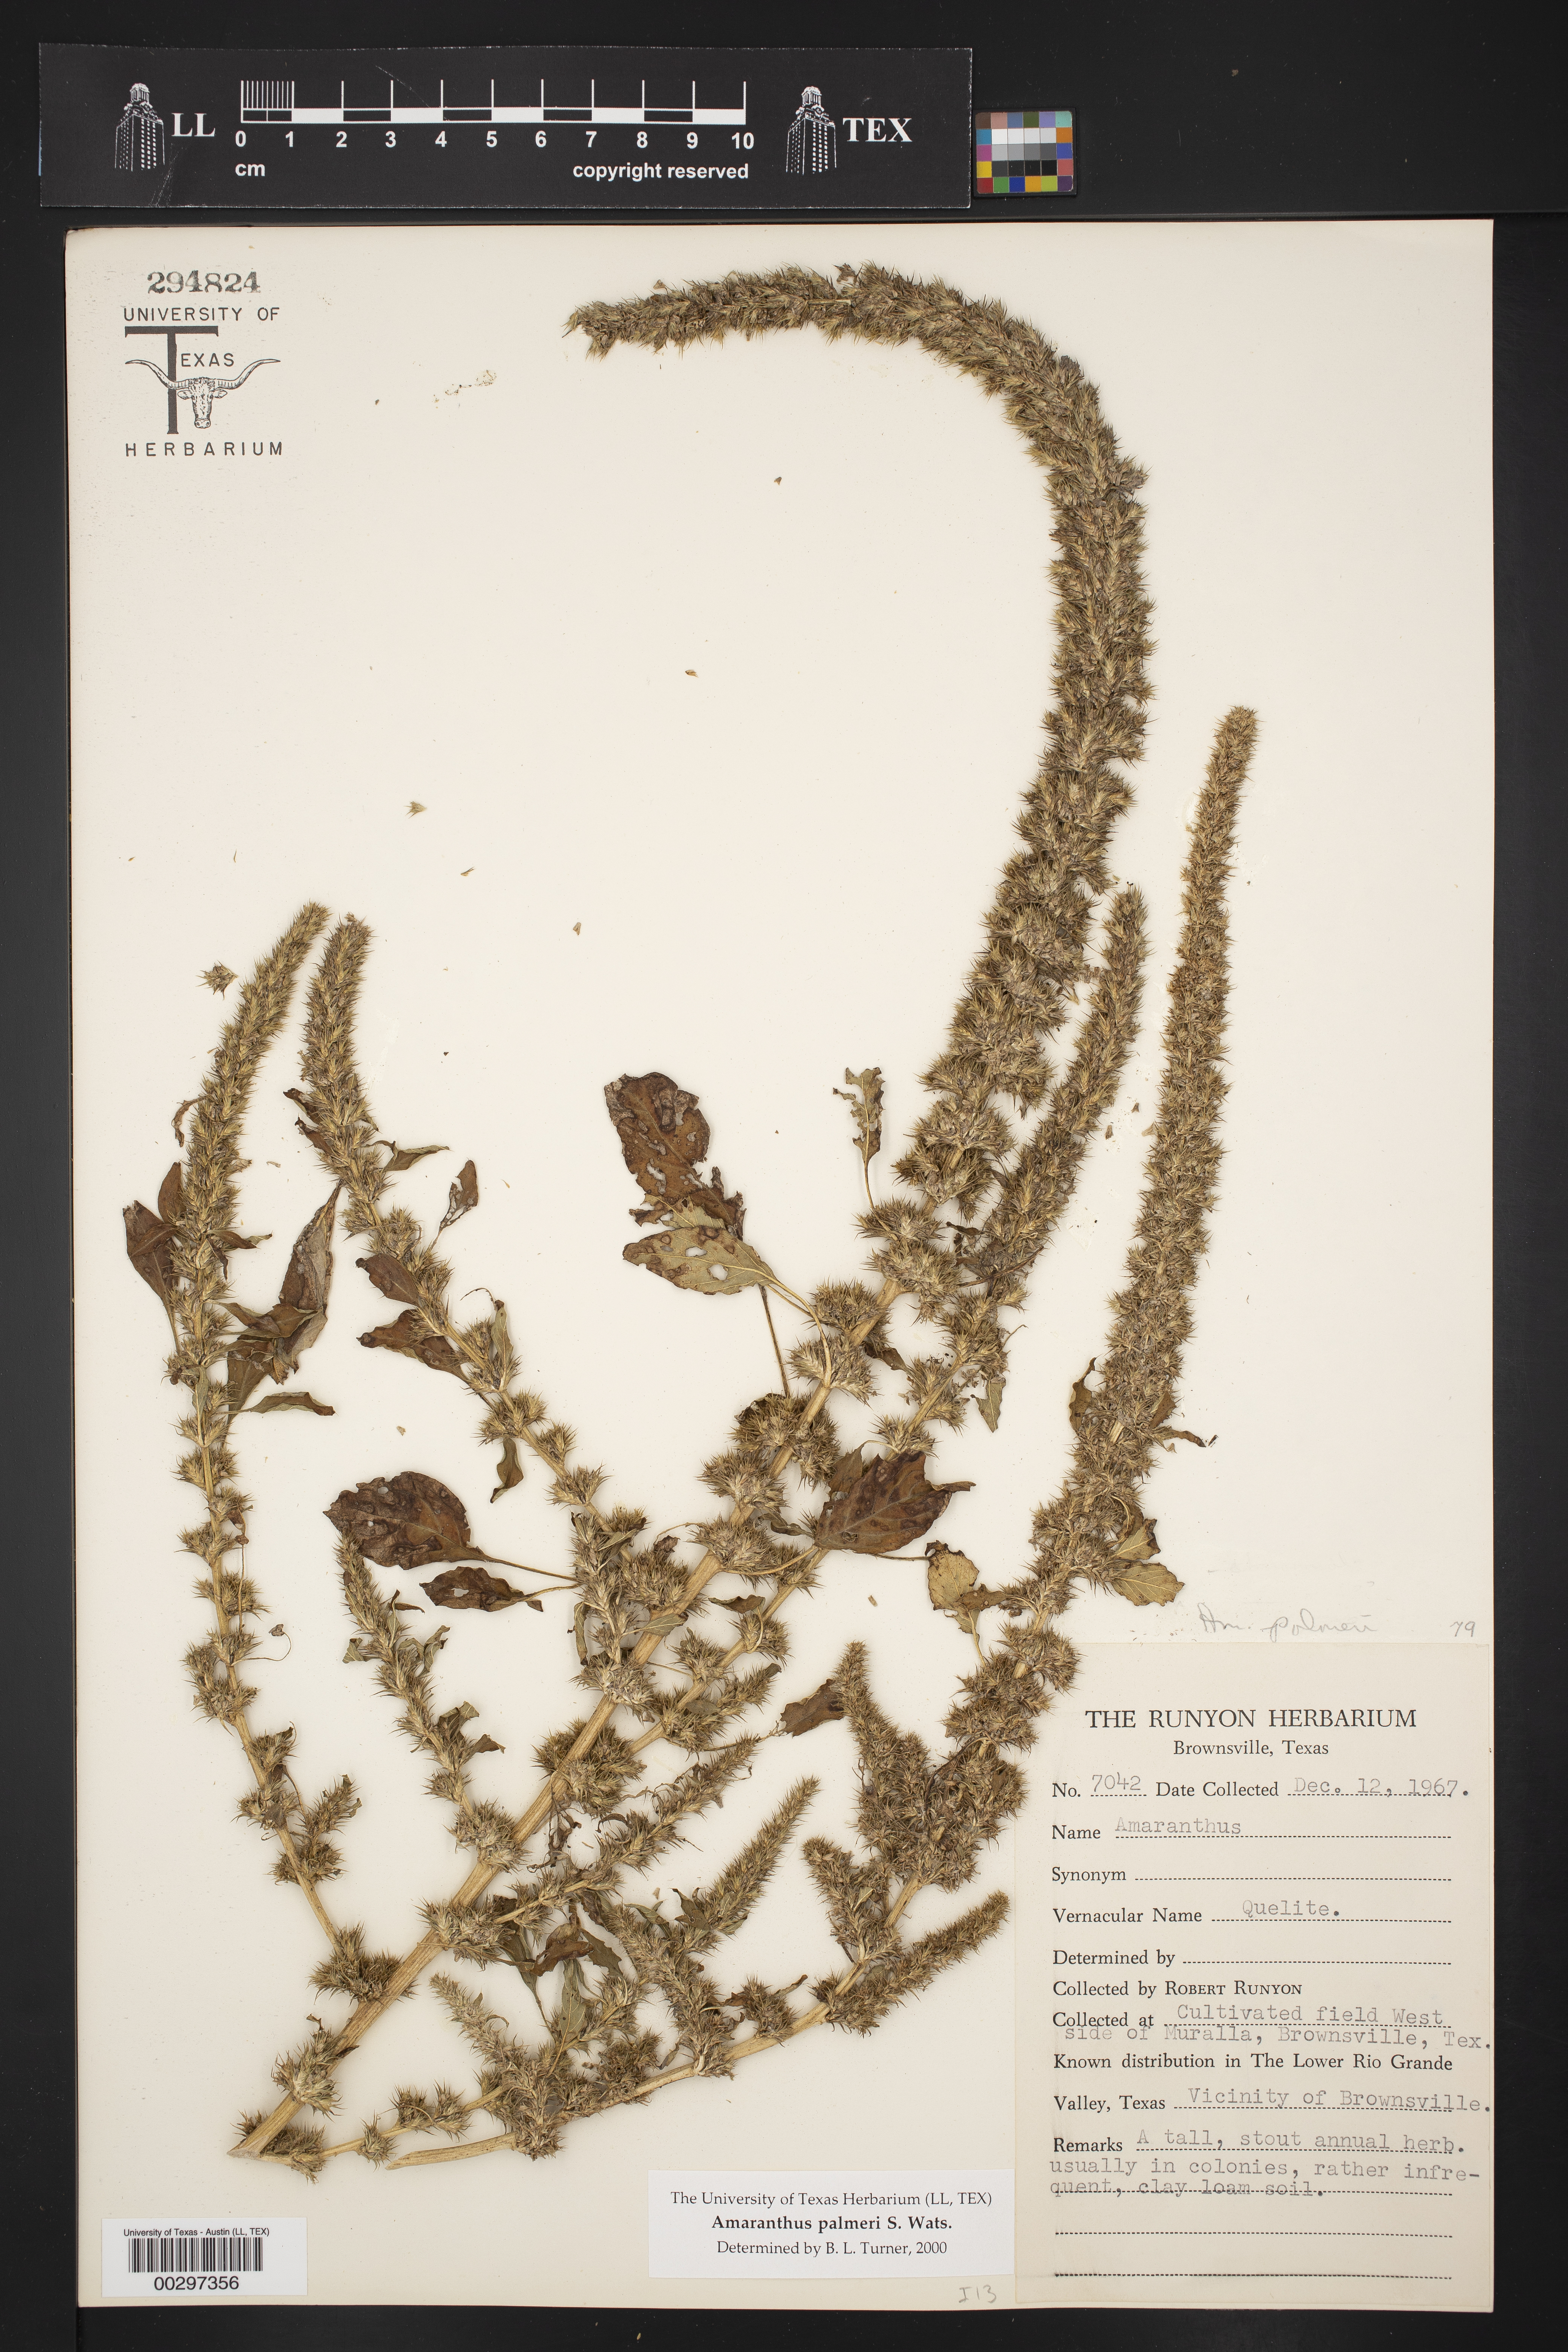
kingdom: Plantae
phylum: Tracheophyta
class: Magnoliopsida
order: Caryophyllales
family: Amaranthaceae
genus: Amaranthus
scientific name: Amaranthus palmeri
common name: Dioecious amaranth
